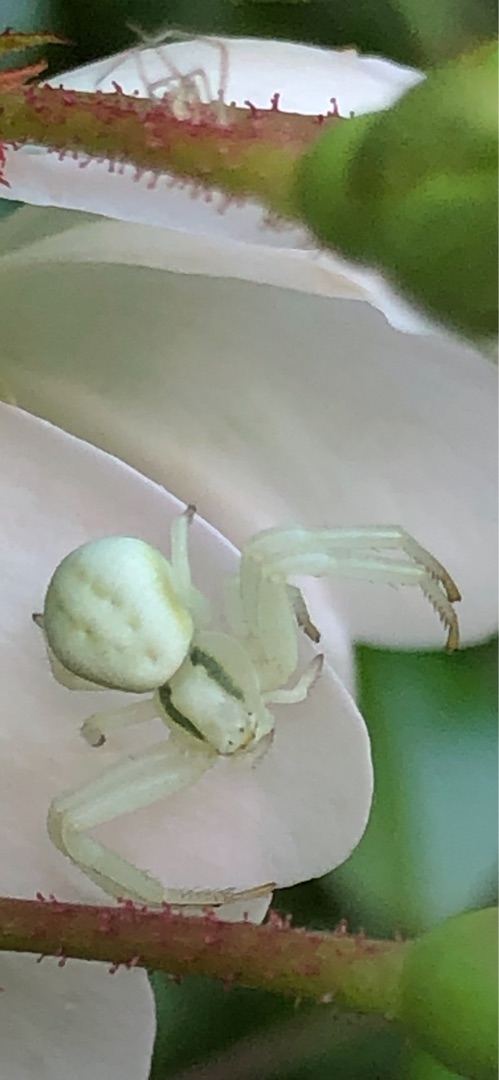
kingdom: Animalia
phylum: Arthropoda
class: Arachnida
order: Araneae
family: Thomisidae
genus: Misumena
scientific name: Misumena vatia
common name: Kamæleonedderkop
